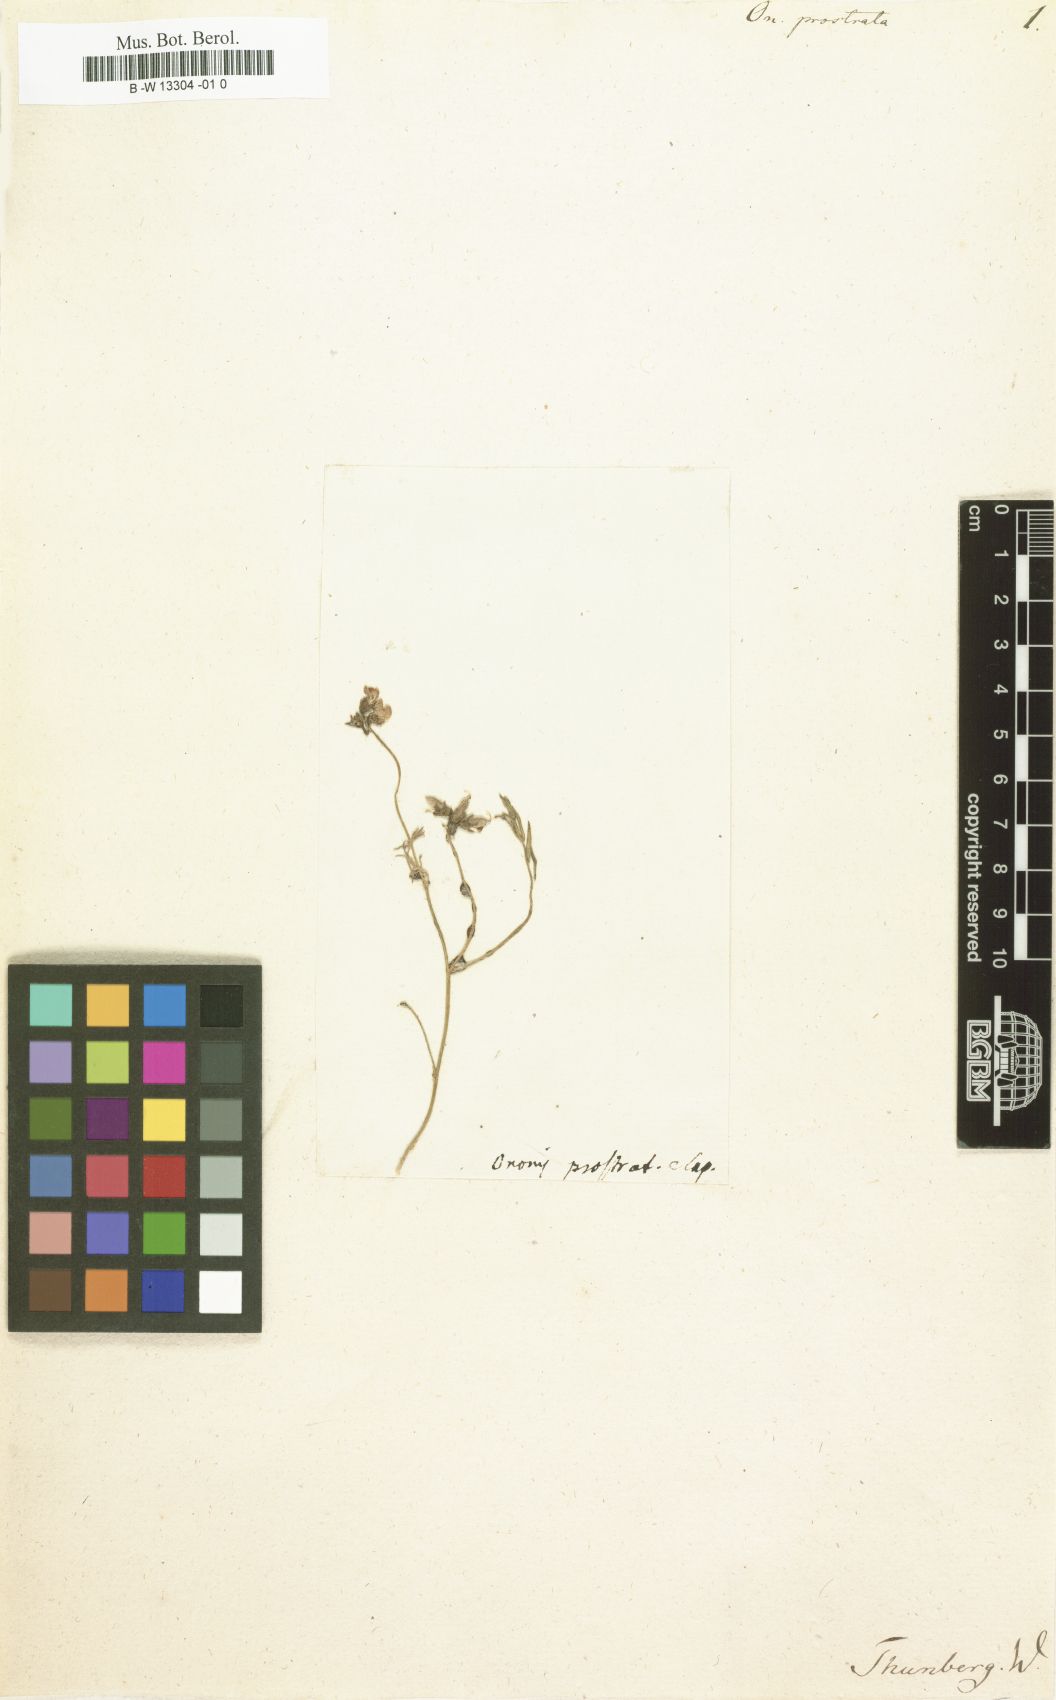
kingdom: Plantae
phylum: Tracheophyta
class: Magnoliopsida
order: Fabales
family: Fabaceae
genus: Lotononis
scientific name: Lotononis prostrata
